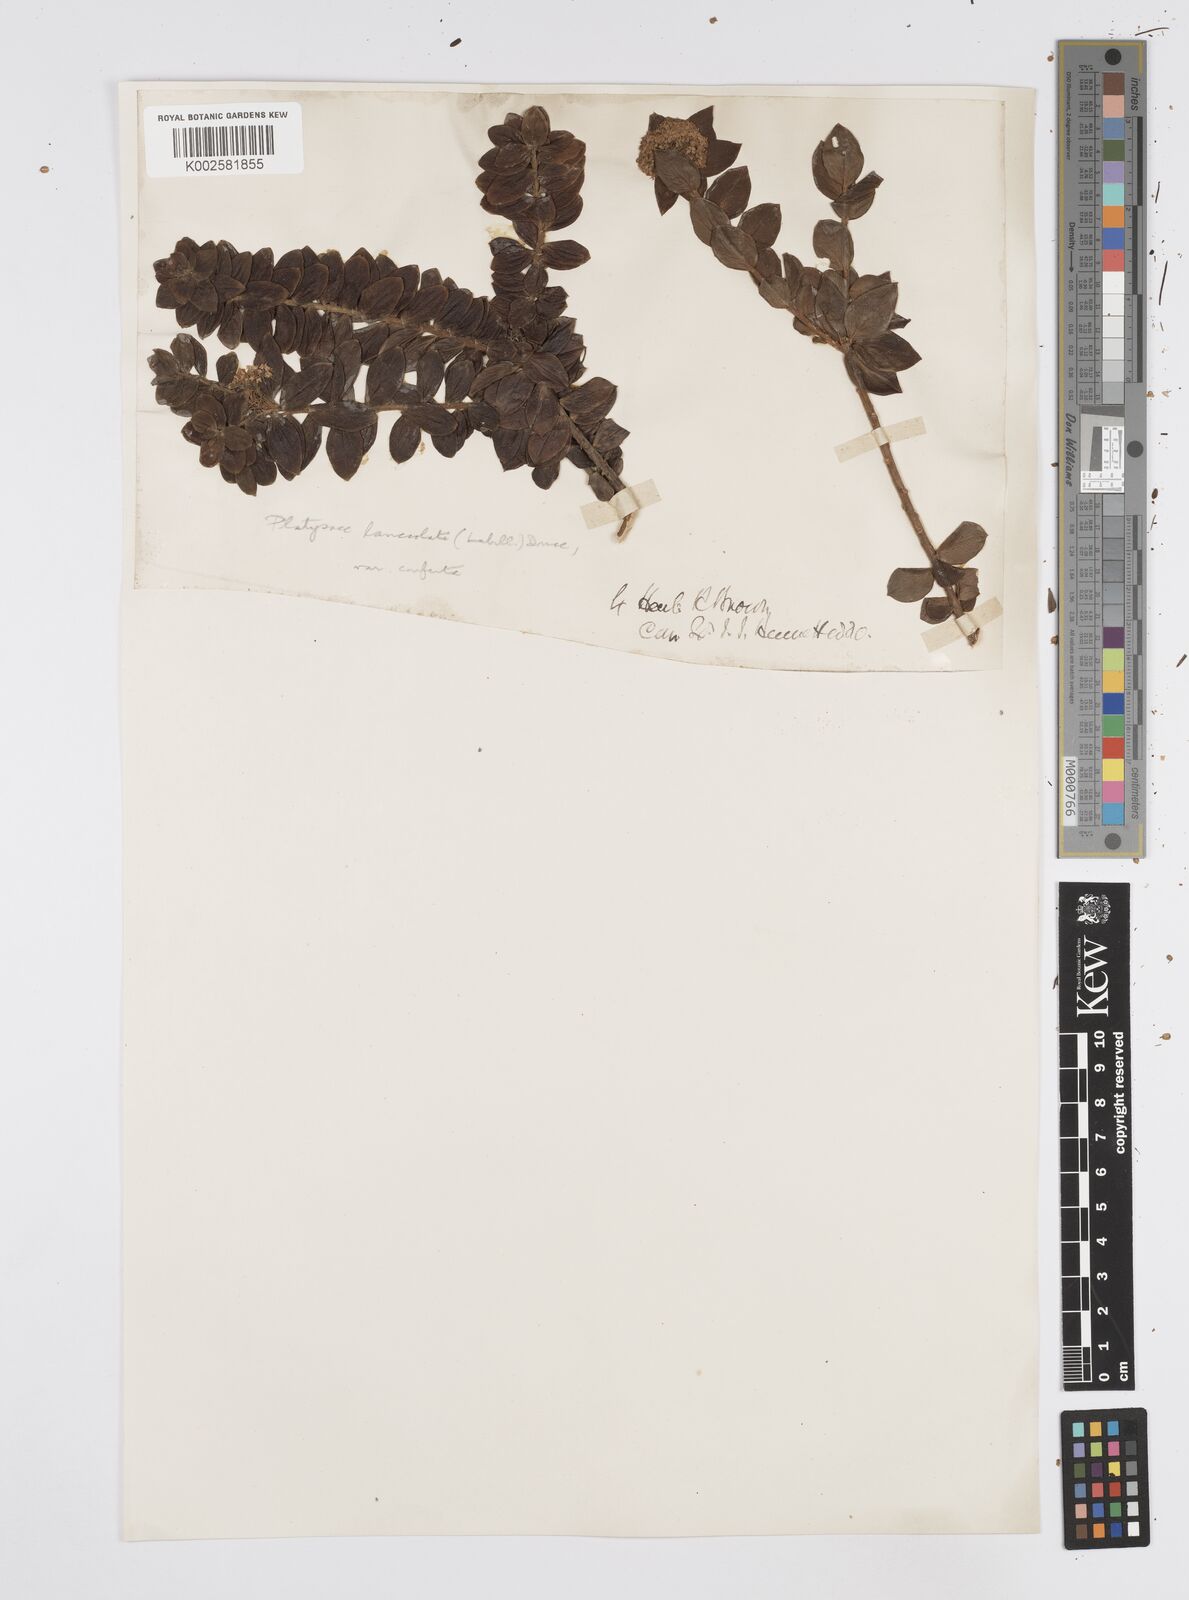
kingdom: Plantae
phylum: Tracheophyta
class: Magnoliopsida
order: Apiales
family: Apiaceae
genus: Platysace
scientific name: Platysace lanceolata
